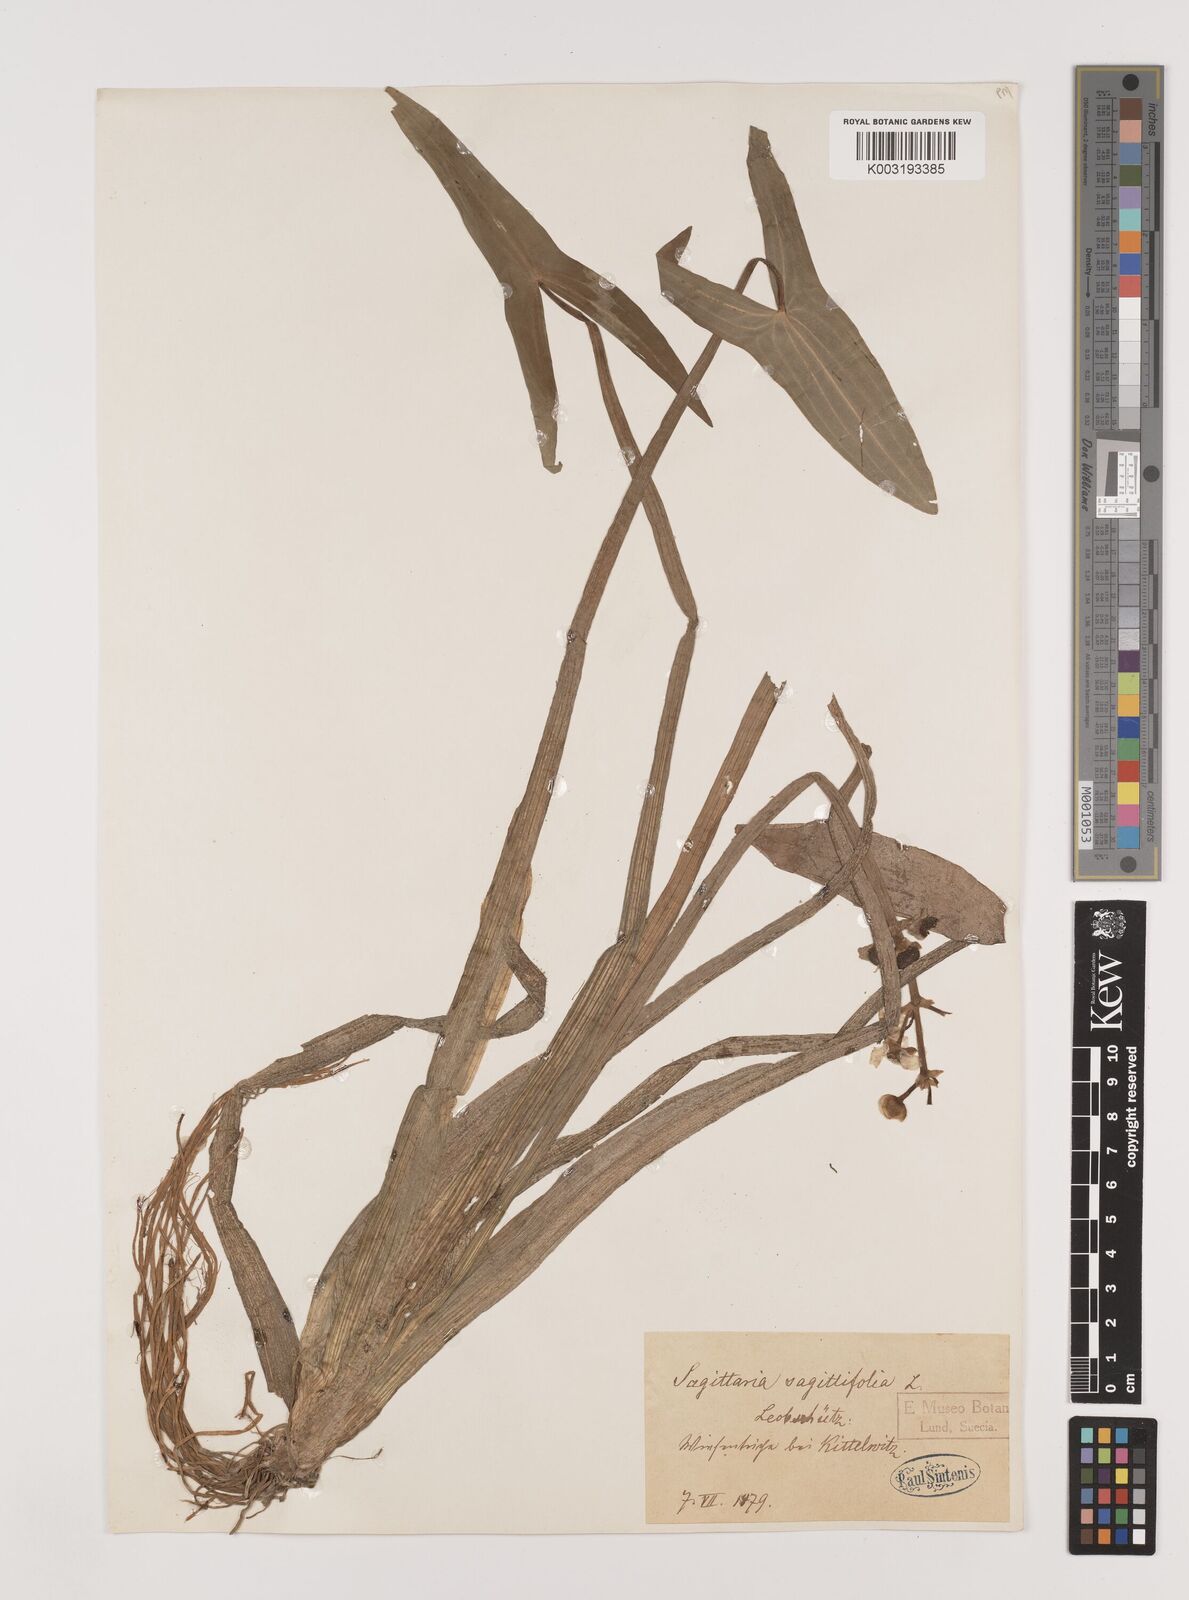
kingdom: Plantae
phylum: Tracheophyta
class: Liliopsida
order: Alismatales
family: Alismataceae
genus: Sagittaria
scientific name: Sagittaria sagittifolia
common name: Arrowhead
